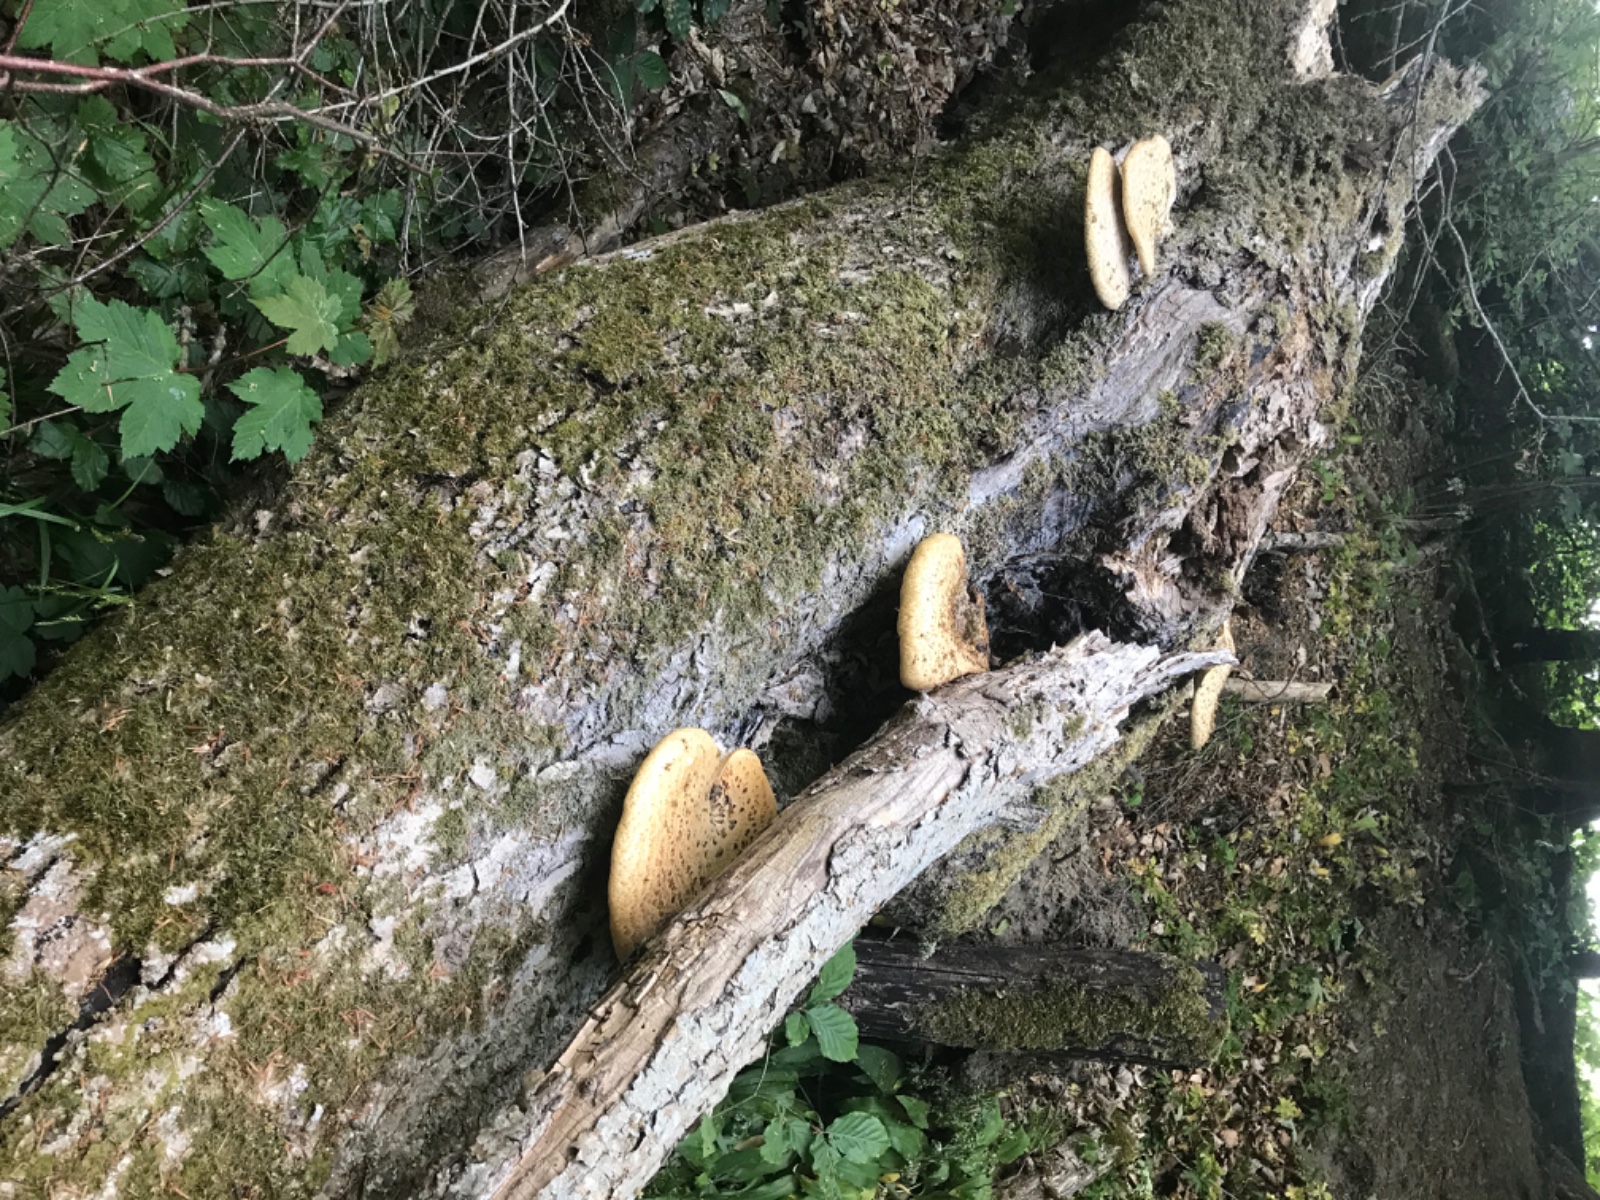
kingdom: Fungi
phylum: Basidiomycota
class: Agaricomycetes
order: Polyporales
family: Polyporaceae
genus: Cerioporus
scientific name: Cerioporus squamosus
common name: skællet stilkporesvamp
